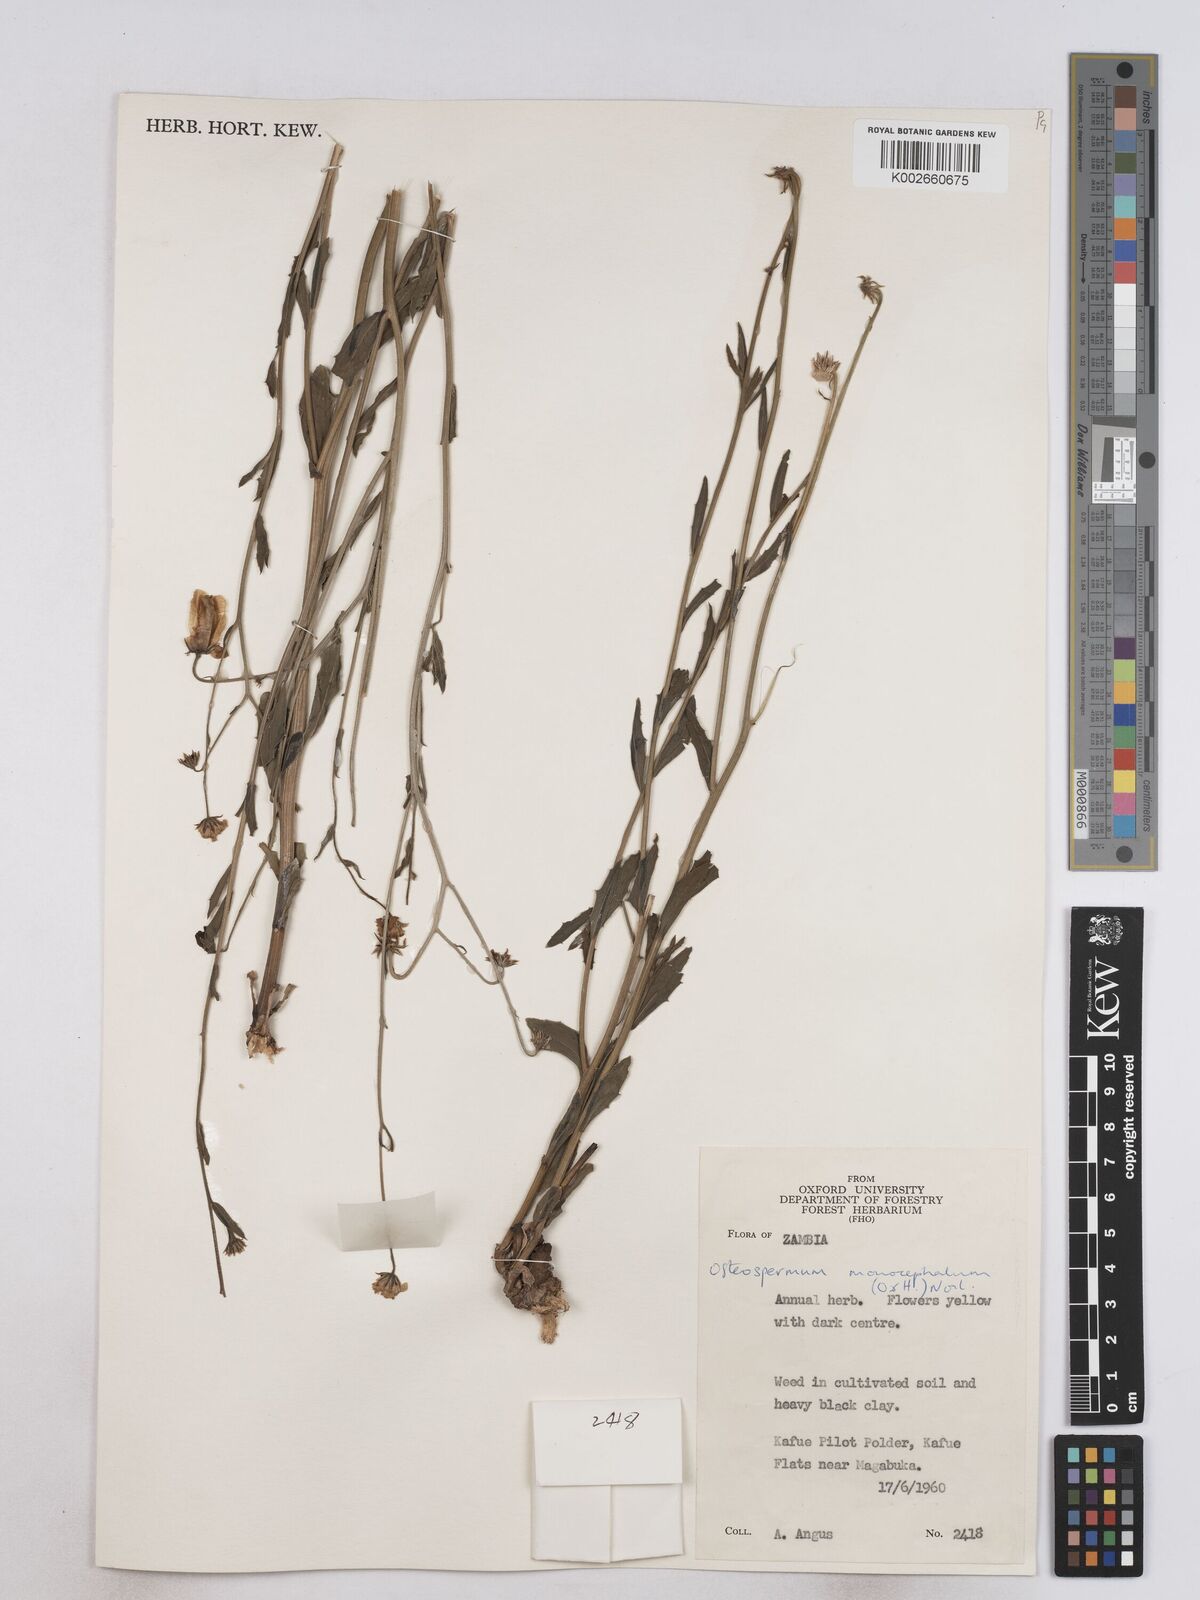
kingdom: Plantae
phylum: Tracheophyta
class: Magnoliopsida
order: Asterales
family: Asteraceae
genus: Osteospermum
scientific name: Osteospermum monocephalum
